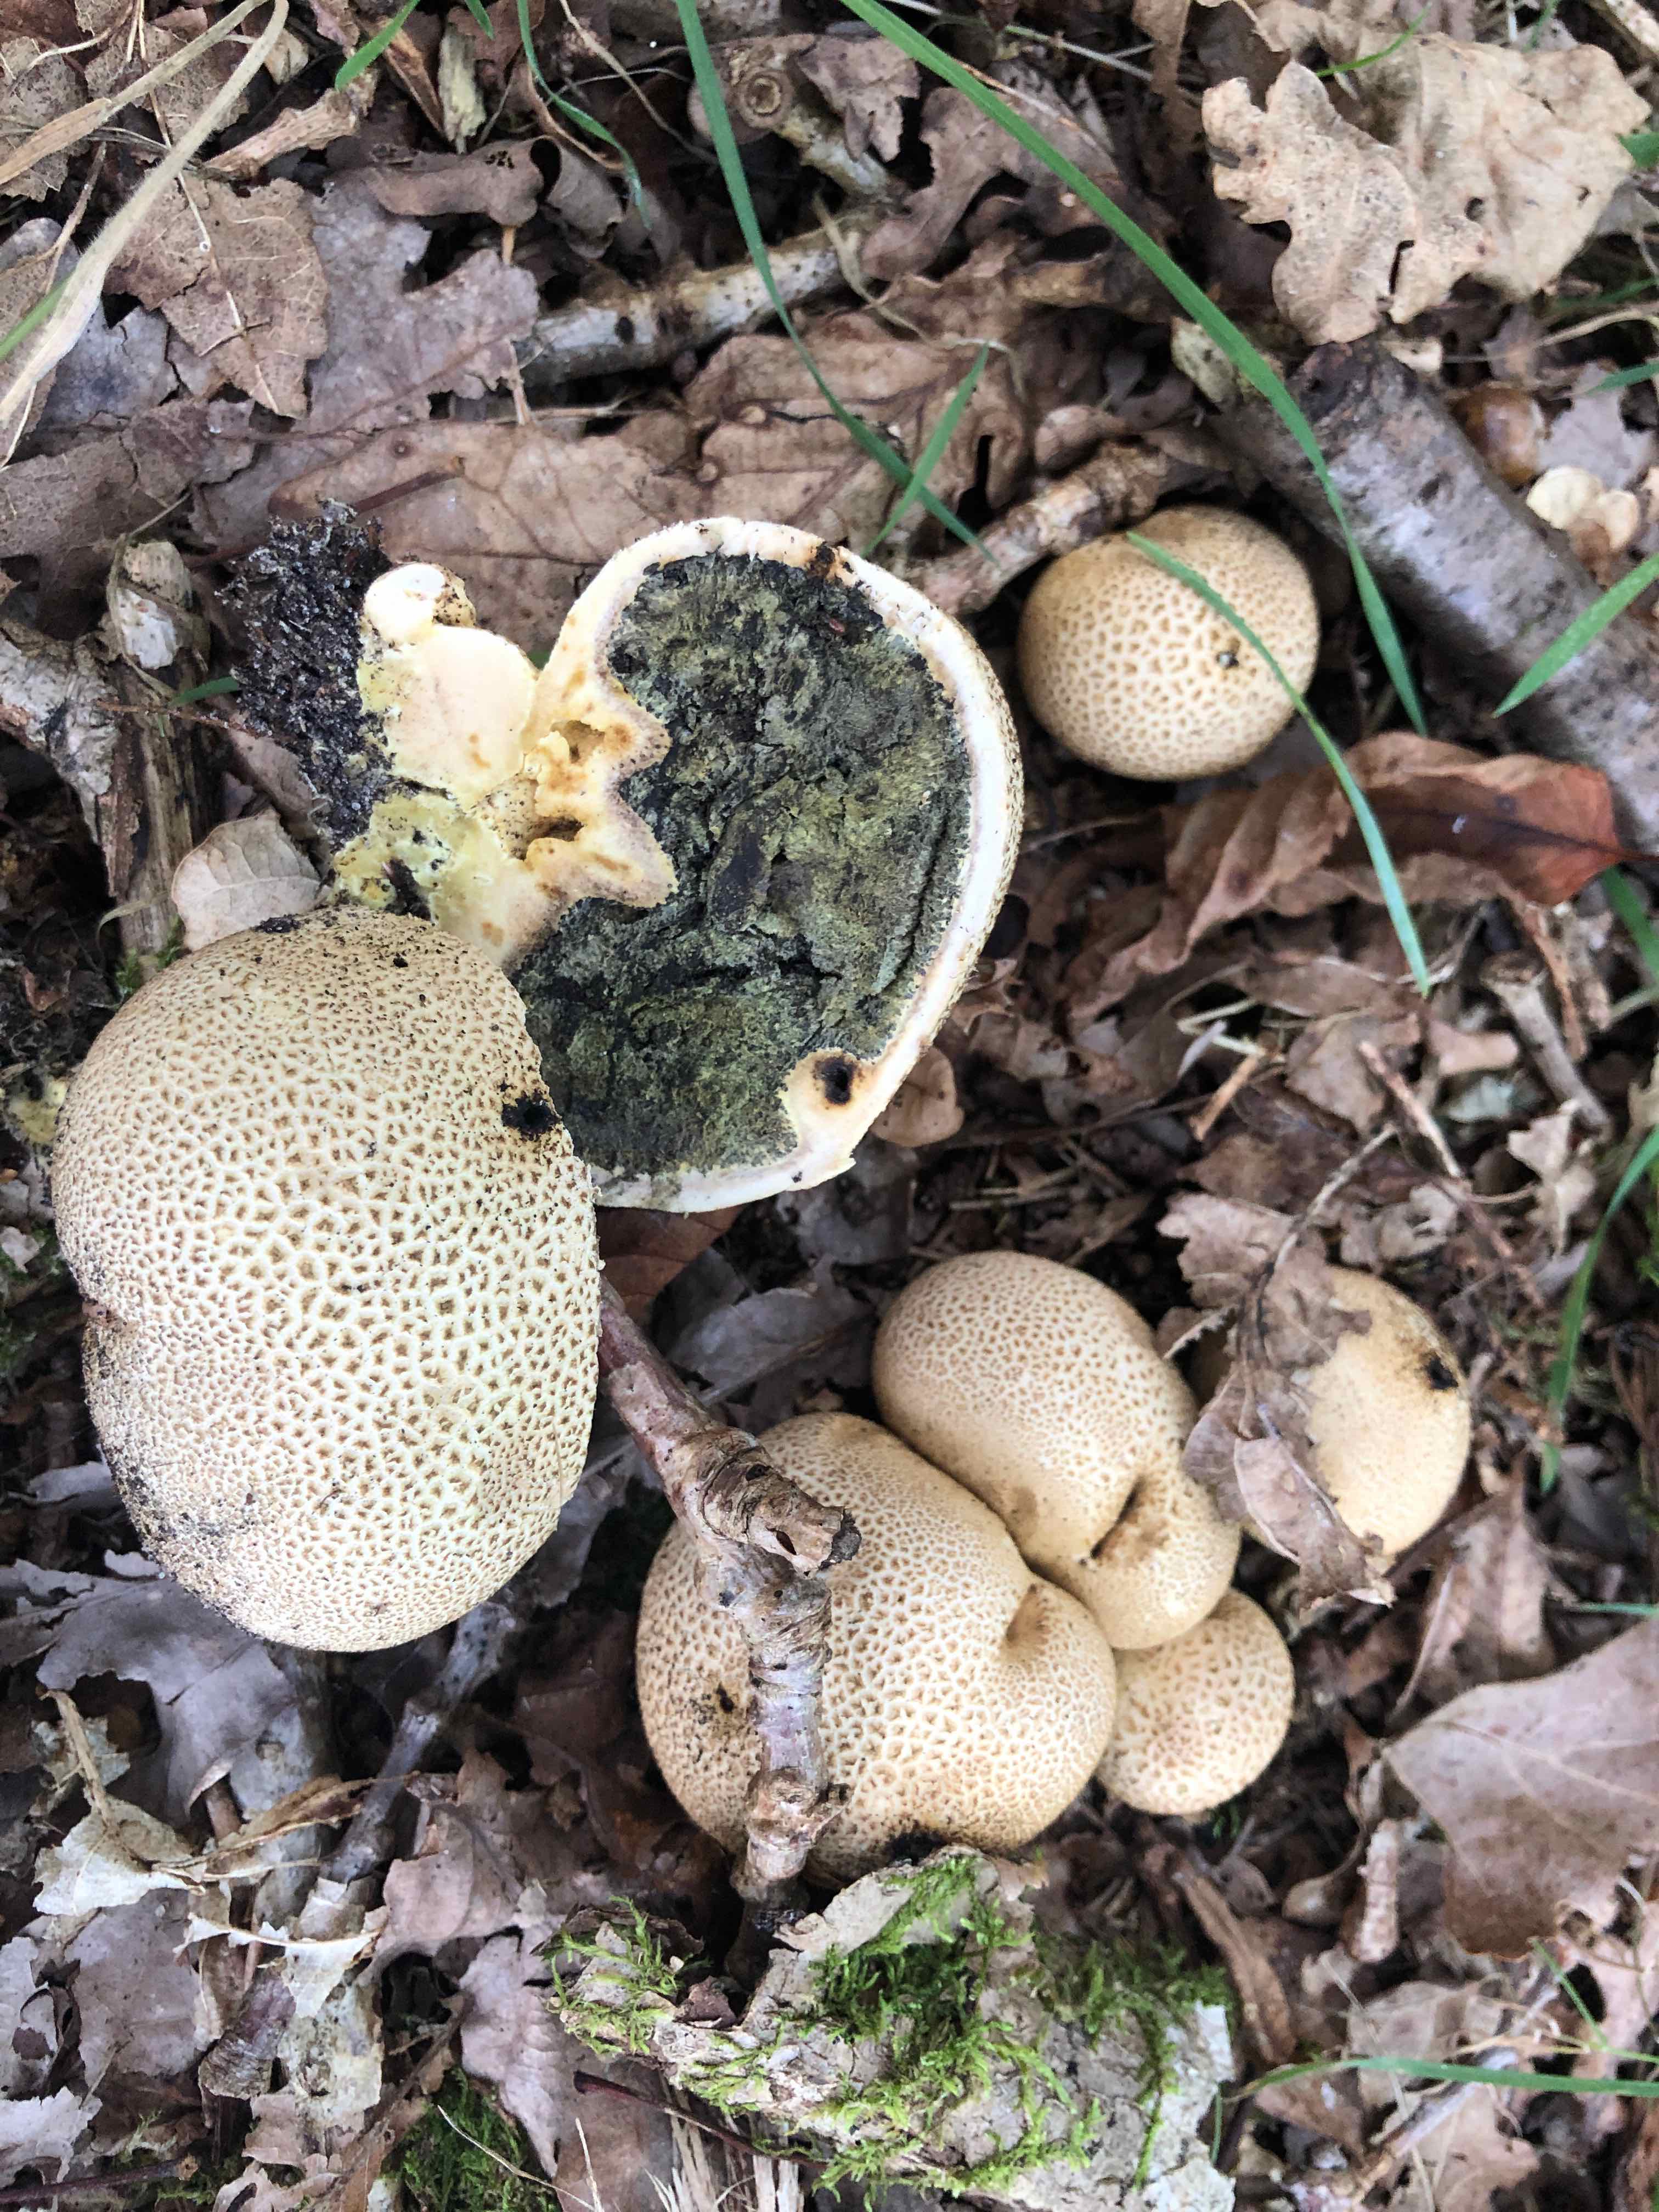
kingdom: Fungi
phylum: Basidiomycota
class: Agaricomycetes
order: Boletales
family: Sclerodermataceae
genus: Scleroderma
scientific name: Scleroderma citrinum
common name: almindelig bruskbold
